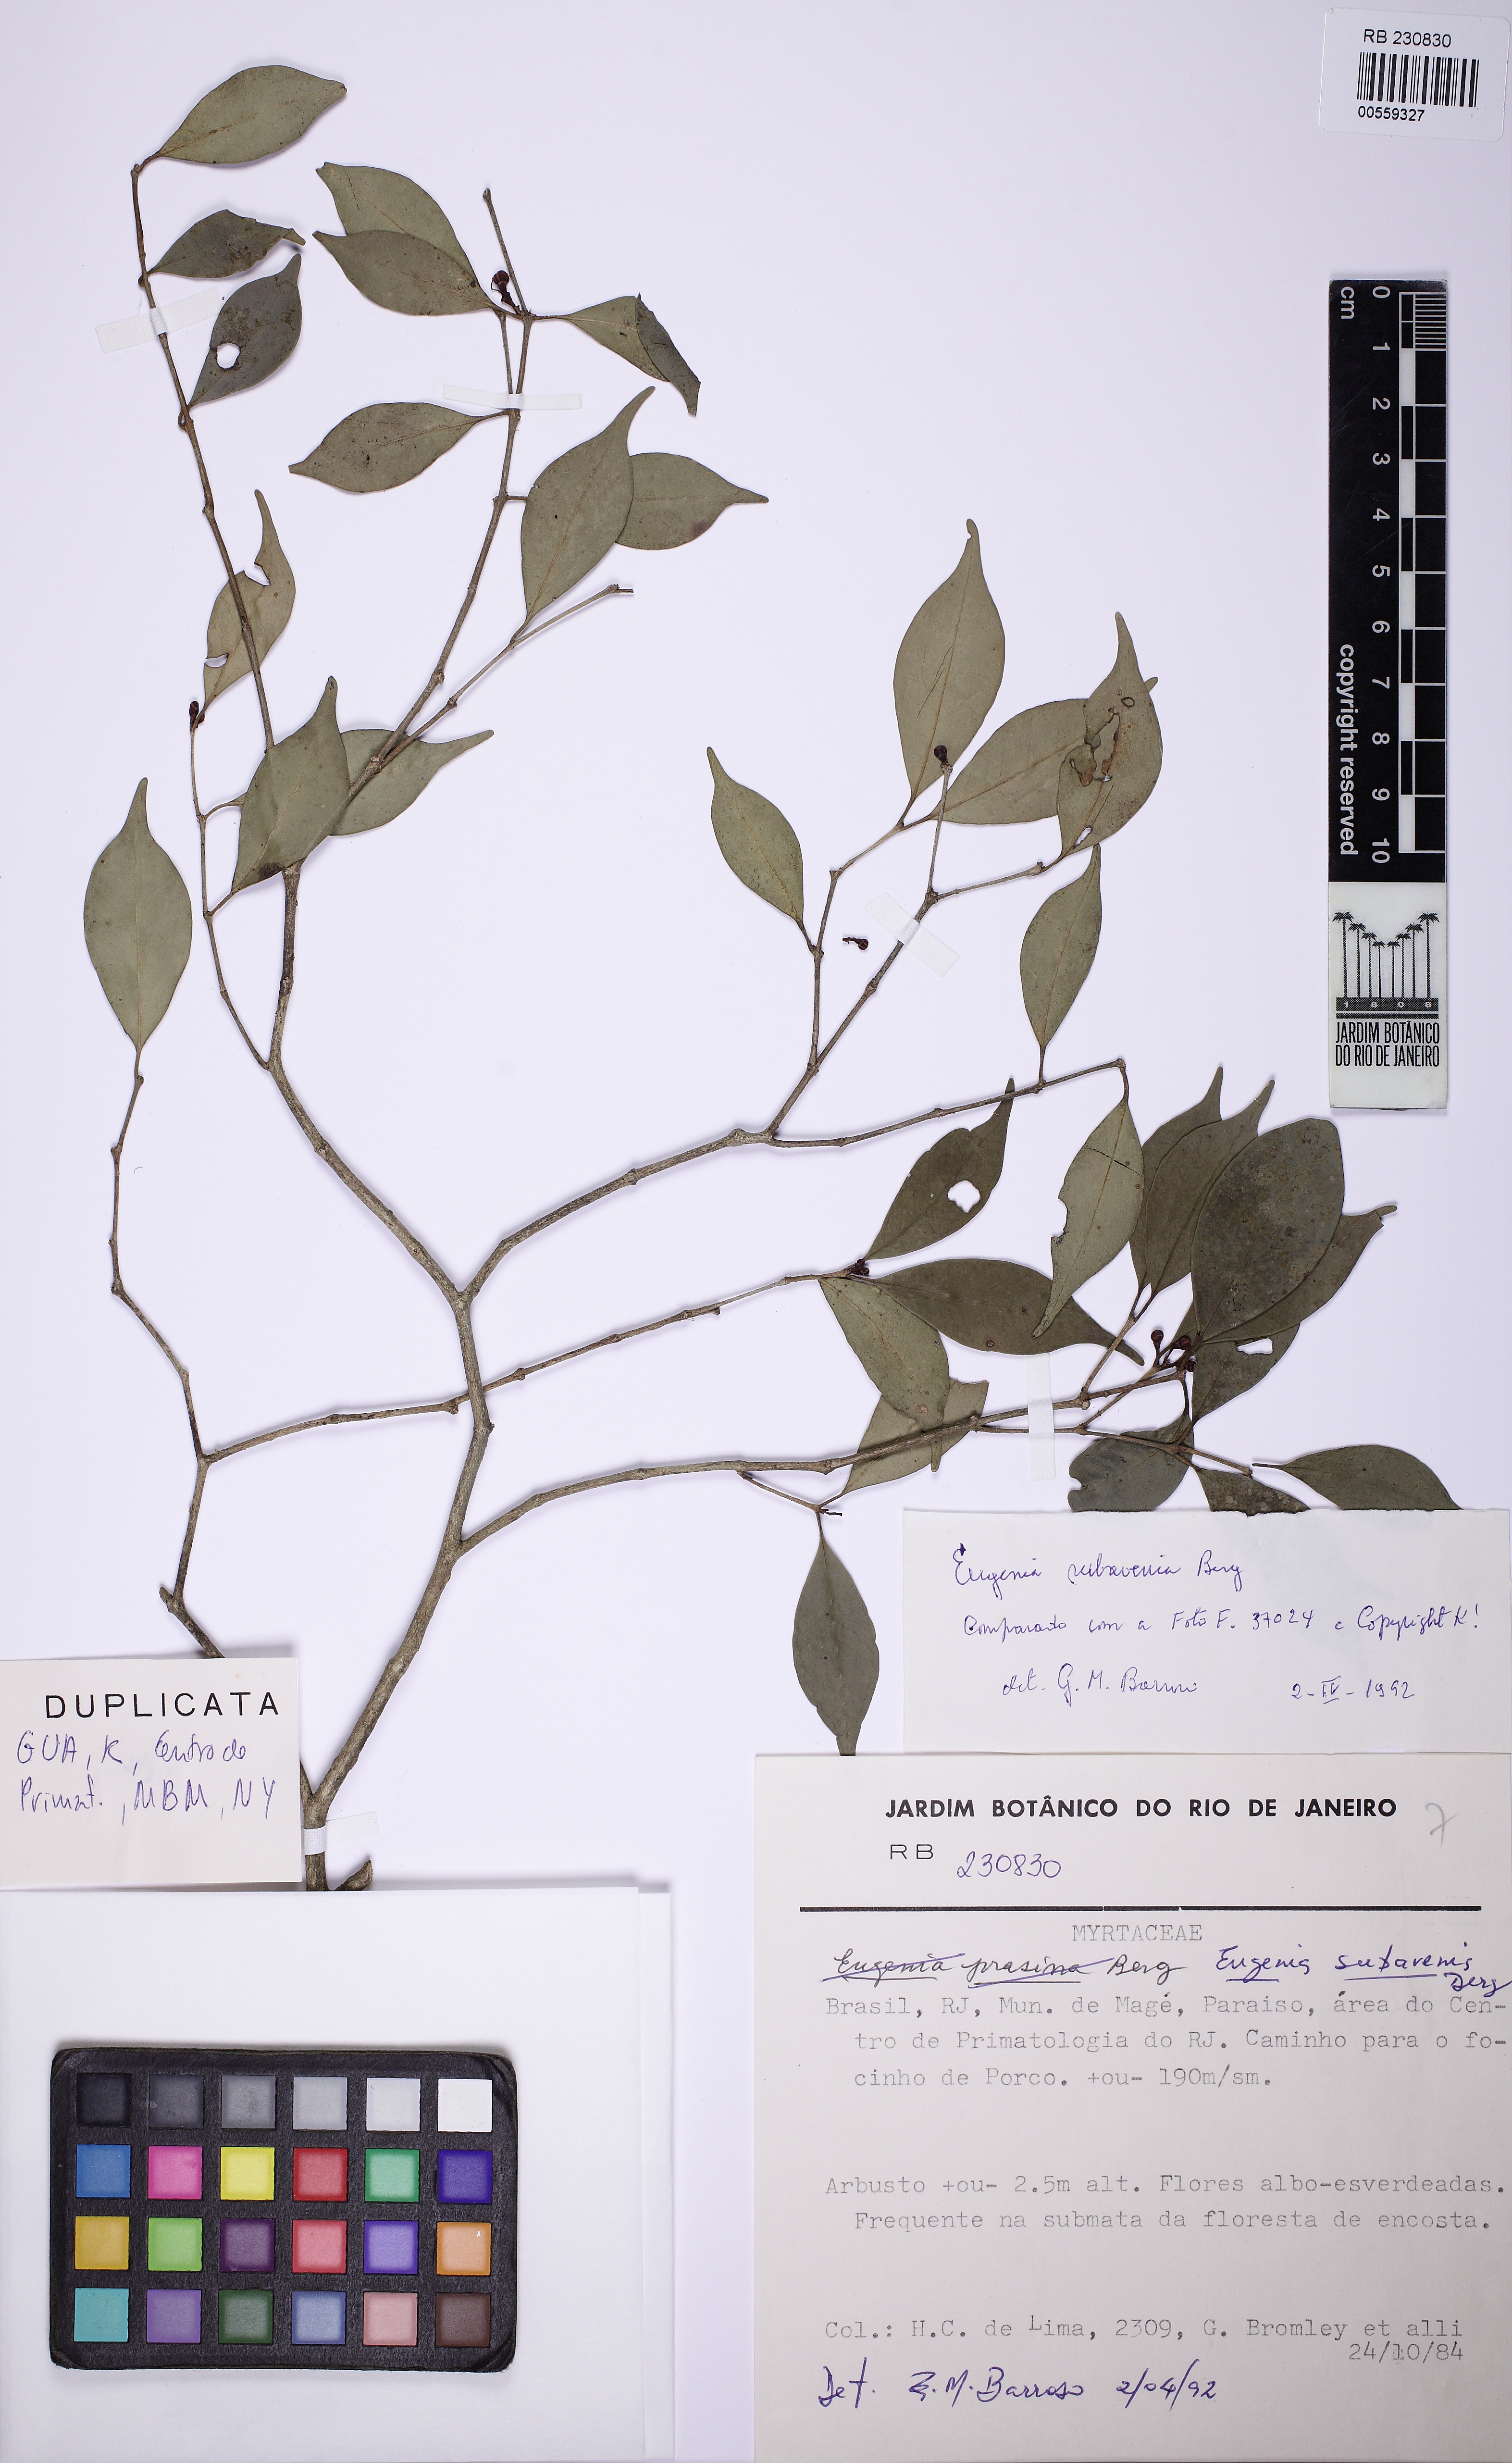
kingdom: Plantae
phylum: Tracheophyta
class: Magnoliopsida
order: Myrtales
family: Myrtaceae
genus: Eugenia
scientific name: Eugenia subavenia
